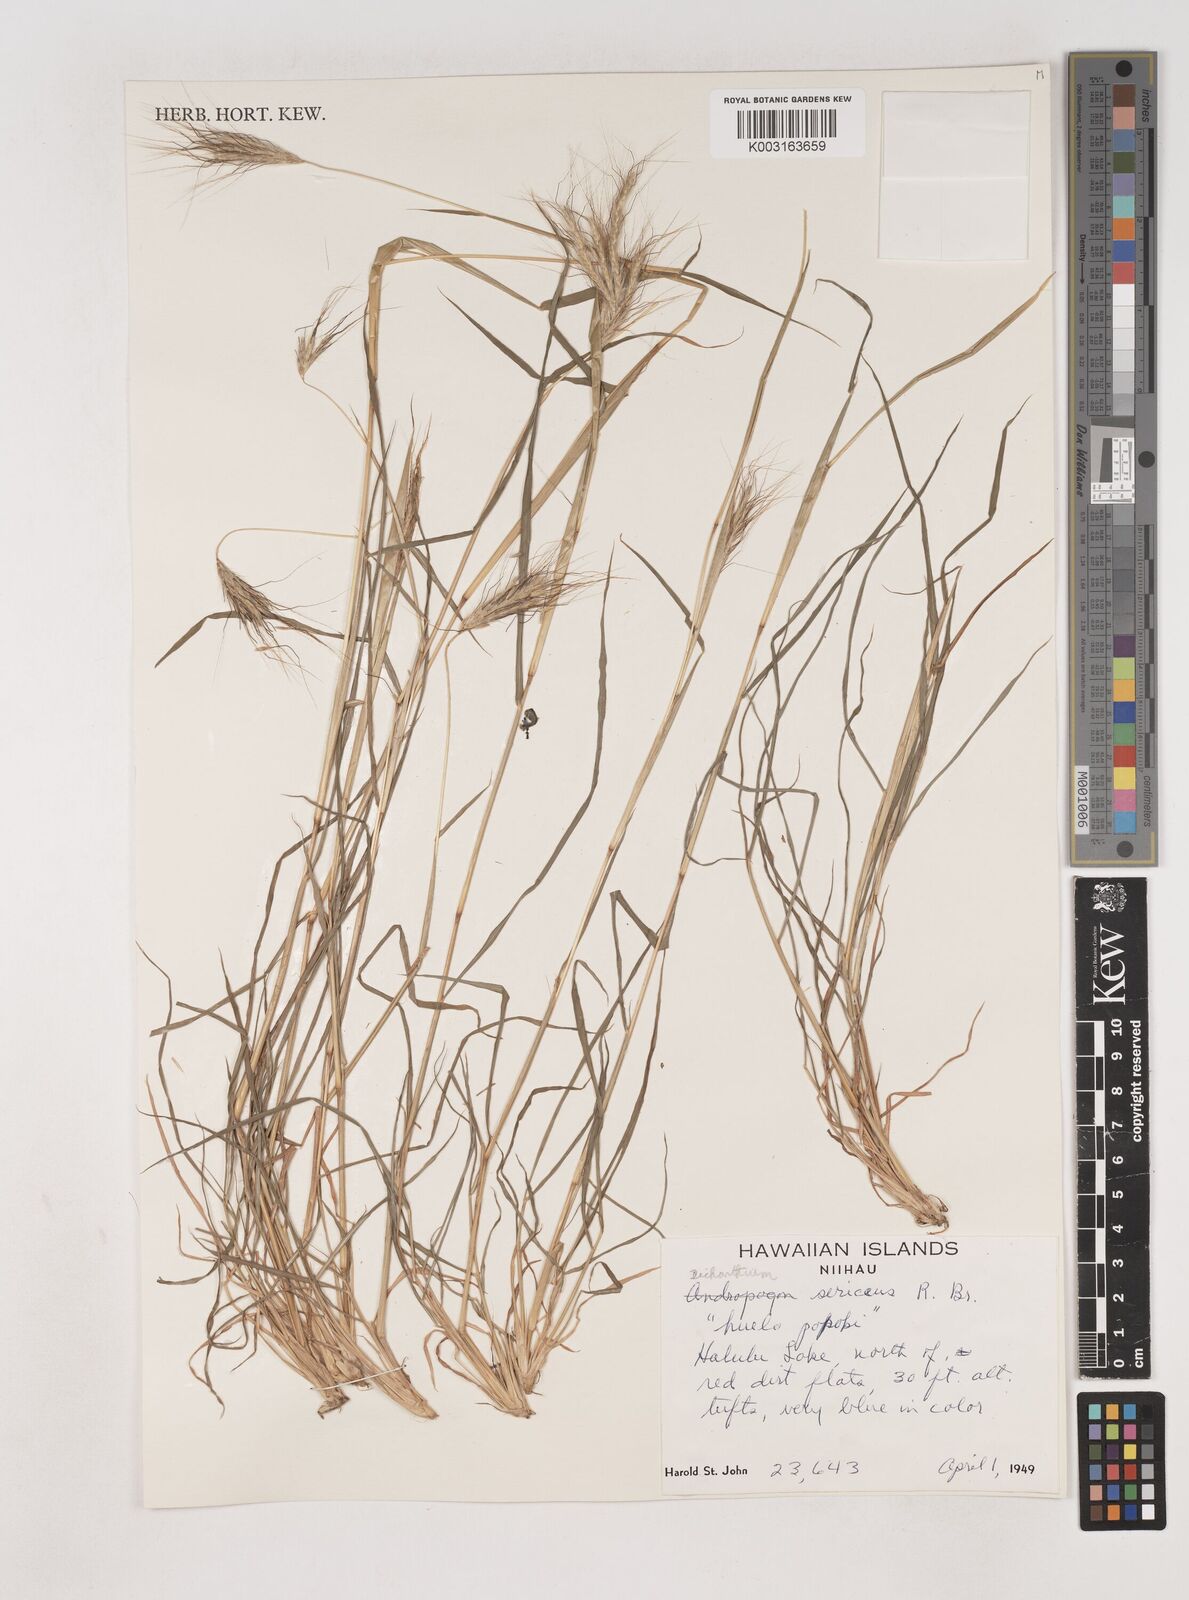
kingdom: Plantae
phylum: Tracheophyta
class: Liliopsida
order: Poales
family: Poaceae
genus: Dichanthium
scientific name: Dichanthium sericeum
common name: Silky bluestem
